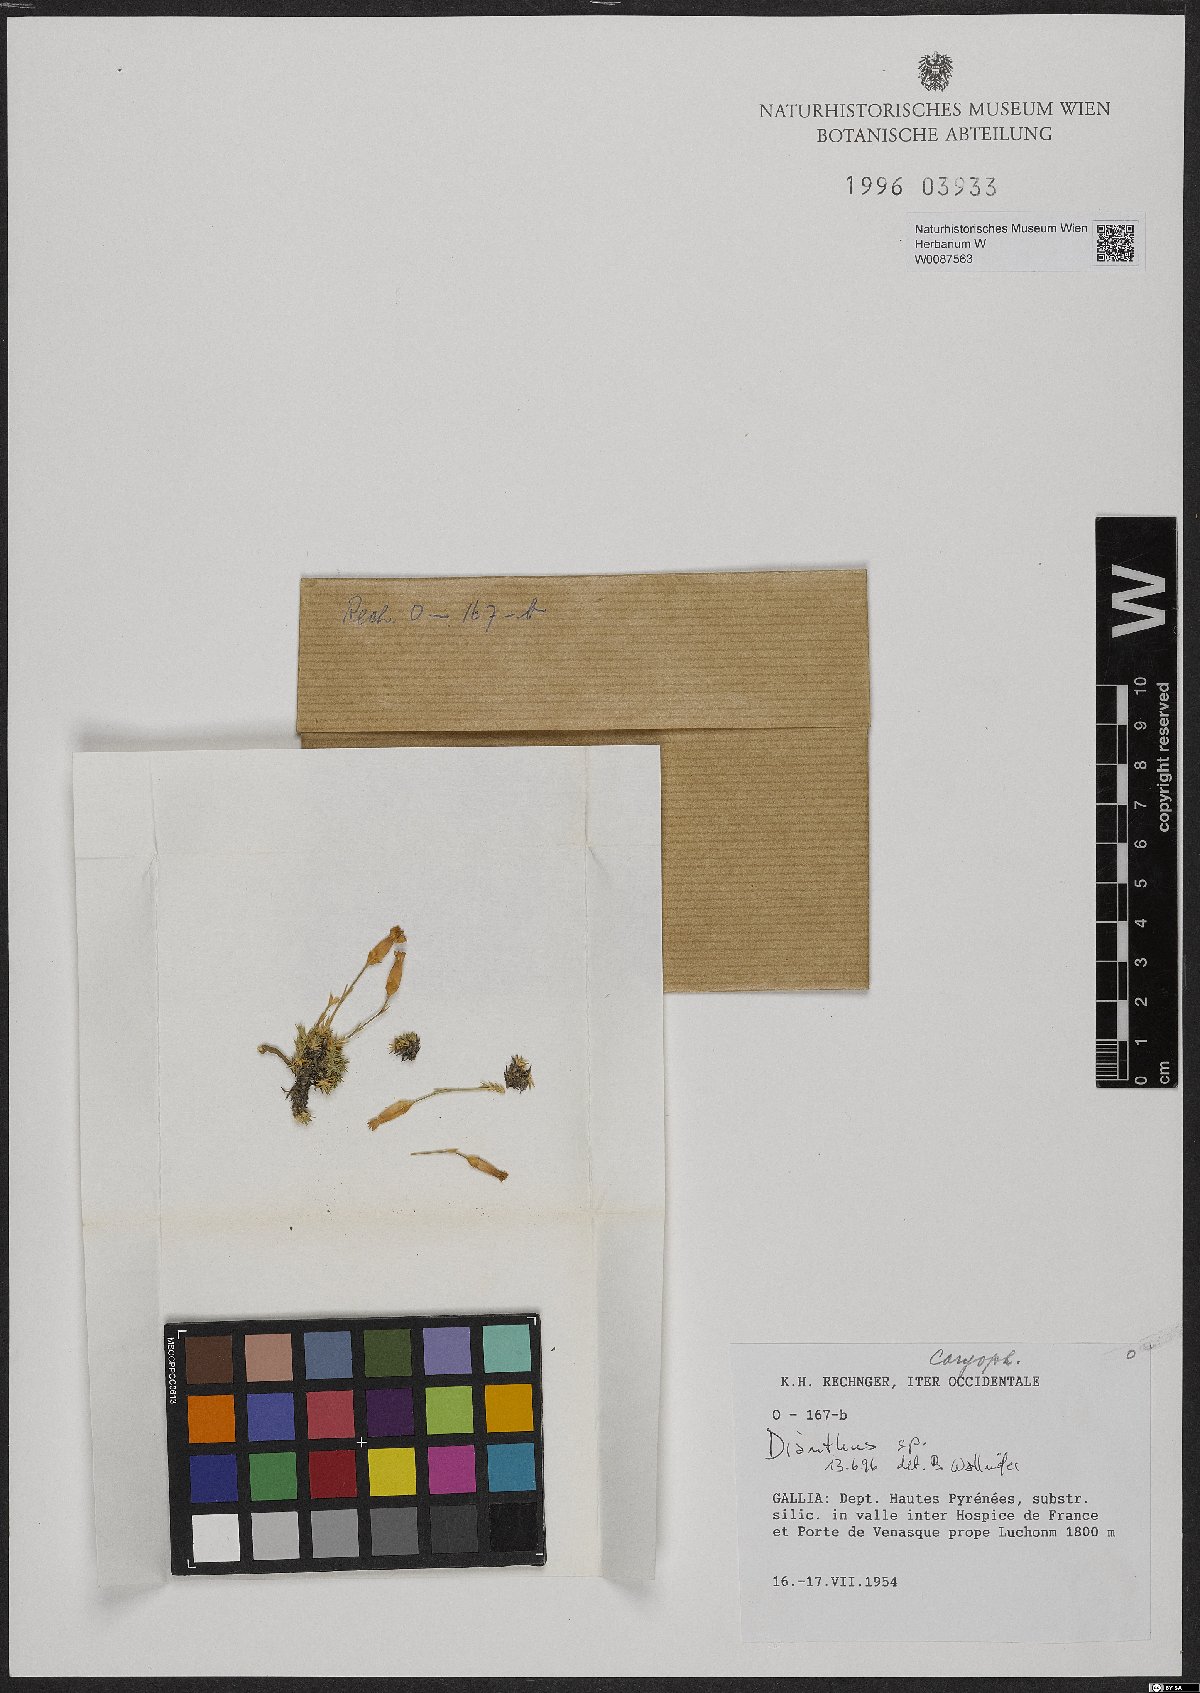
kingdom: Plantae
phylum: Tracheophyta
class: Magnoliopsida
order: Caryophyllales
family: Caryophyllaceae
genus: Dianthus
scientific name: Dianthus
